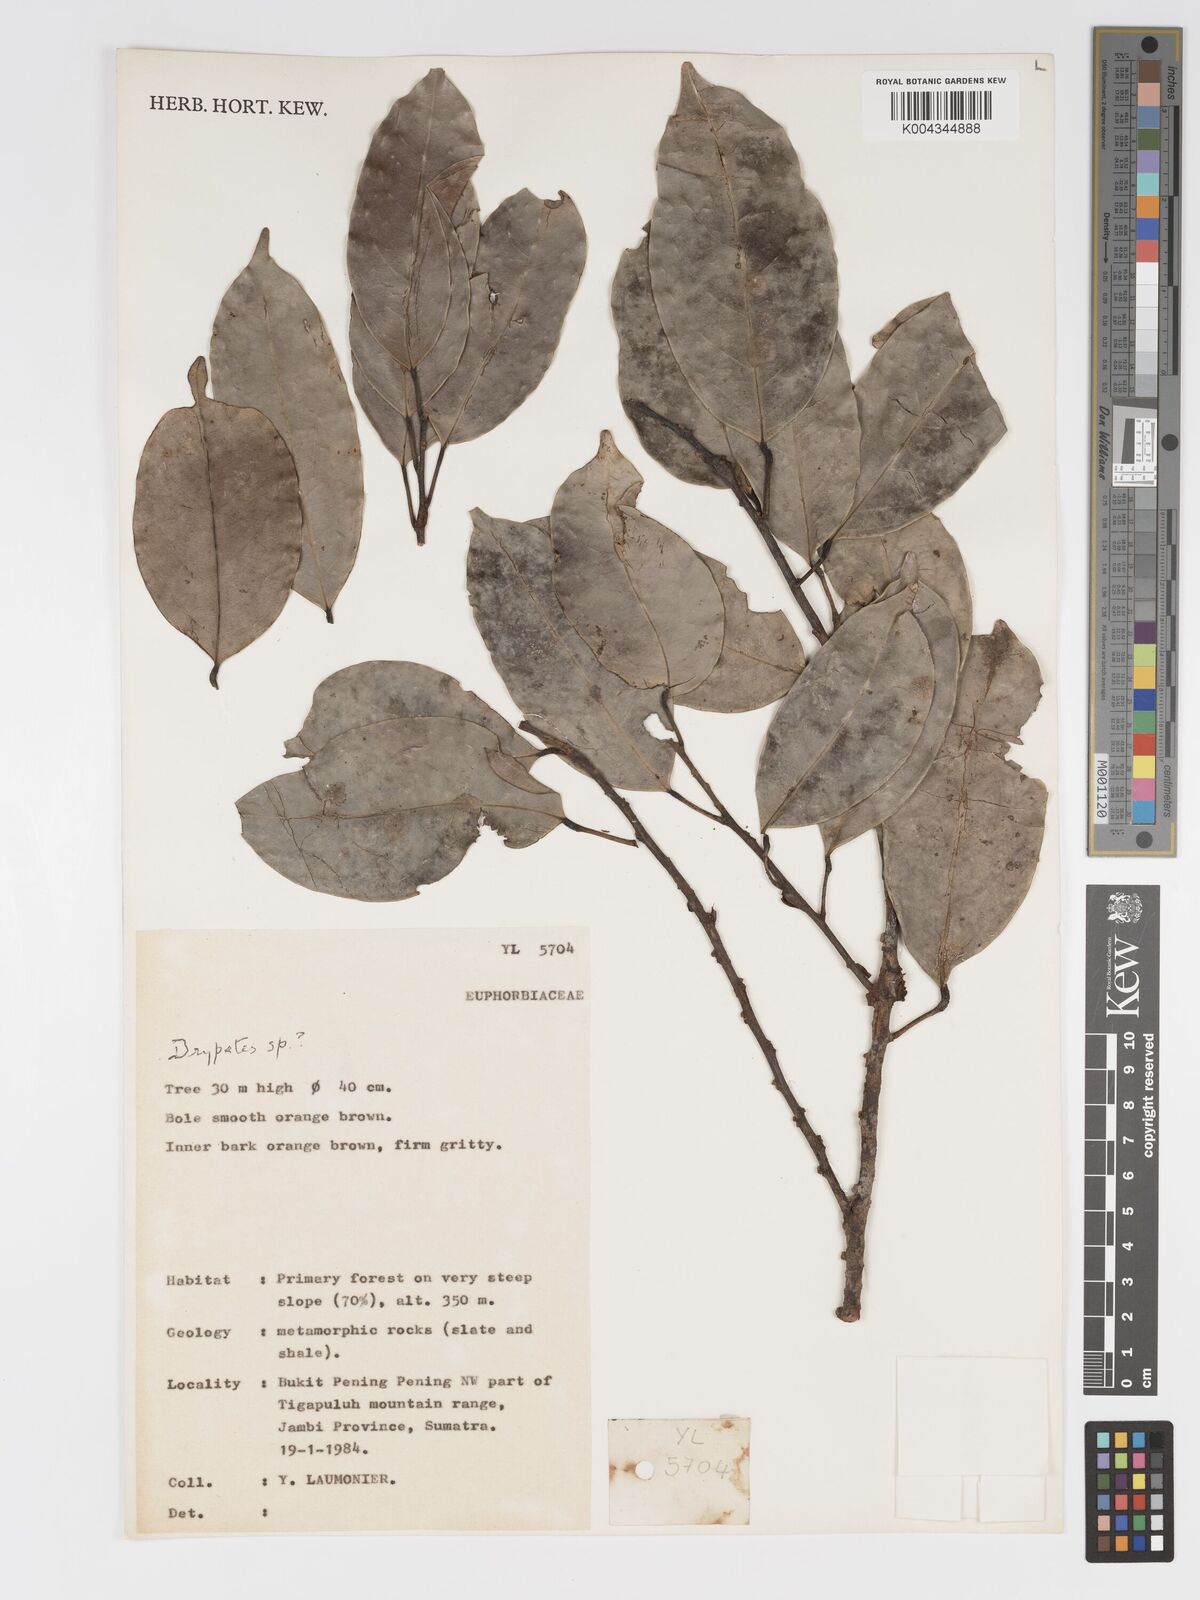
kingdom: Plantae
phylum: Tracheophyta
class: Magnoliopsida
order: Malpighiales
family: Putranjivaceae
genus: Drypetes
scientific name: Drypetes
